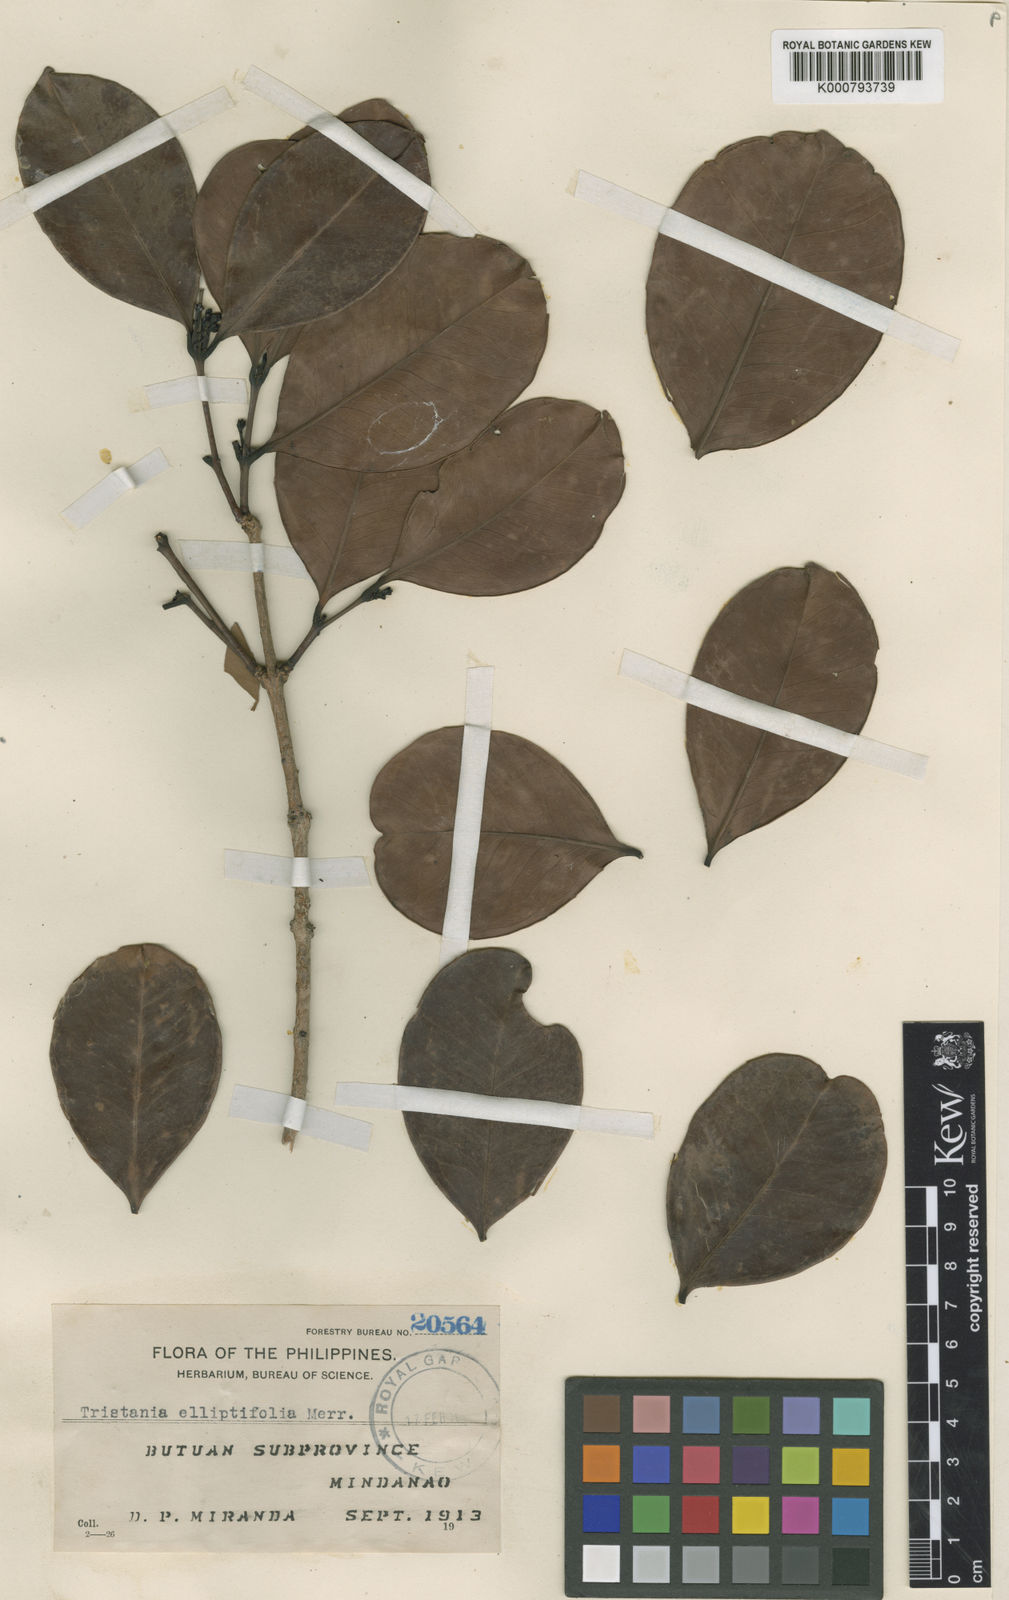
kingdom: Plantae
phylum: Tracheophyta
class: Magnoliopsida
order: Myrtales
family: Myrtaceae
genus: Tristaniopsis
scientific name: Tristaniopsis elliptica
